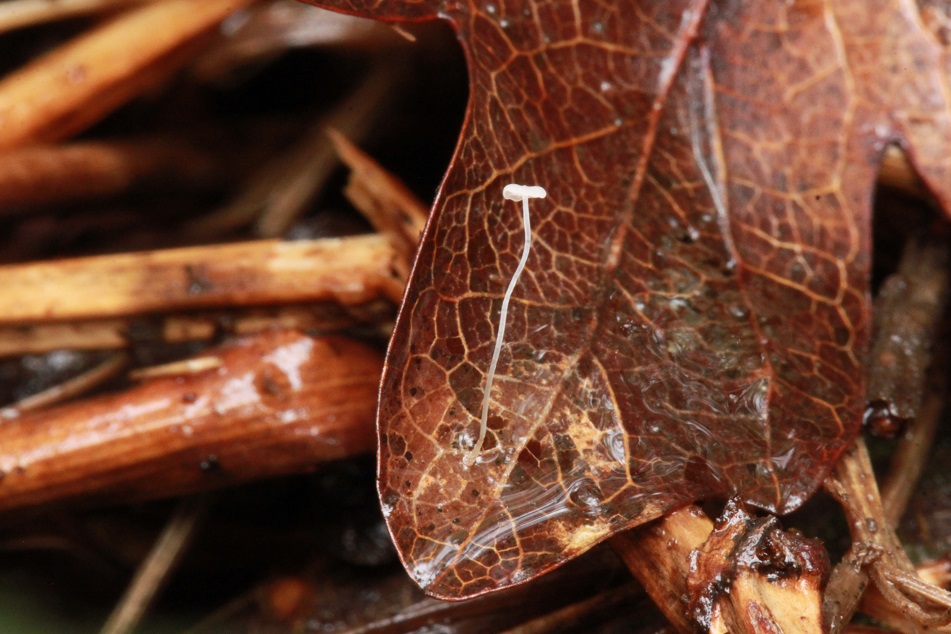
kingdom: Fungi
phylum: Basidiomycota
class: Agaricomycetes
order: Agaricales
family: Mycenaceae
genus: Mycena
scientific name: Mycena smithiana
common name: blegrød huesvamp
